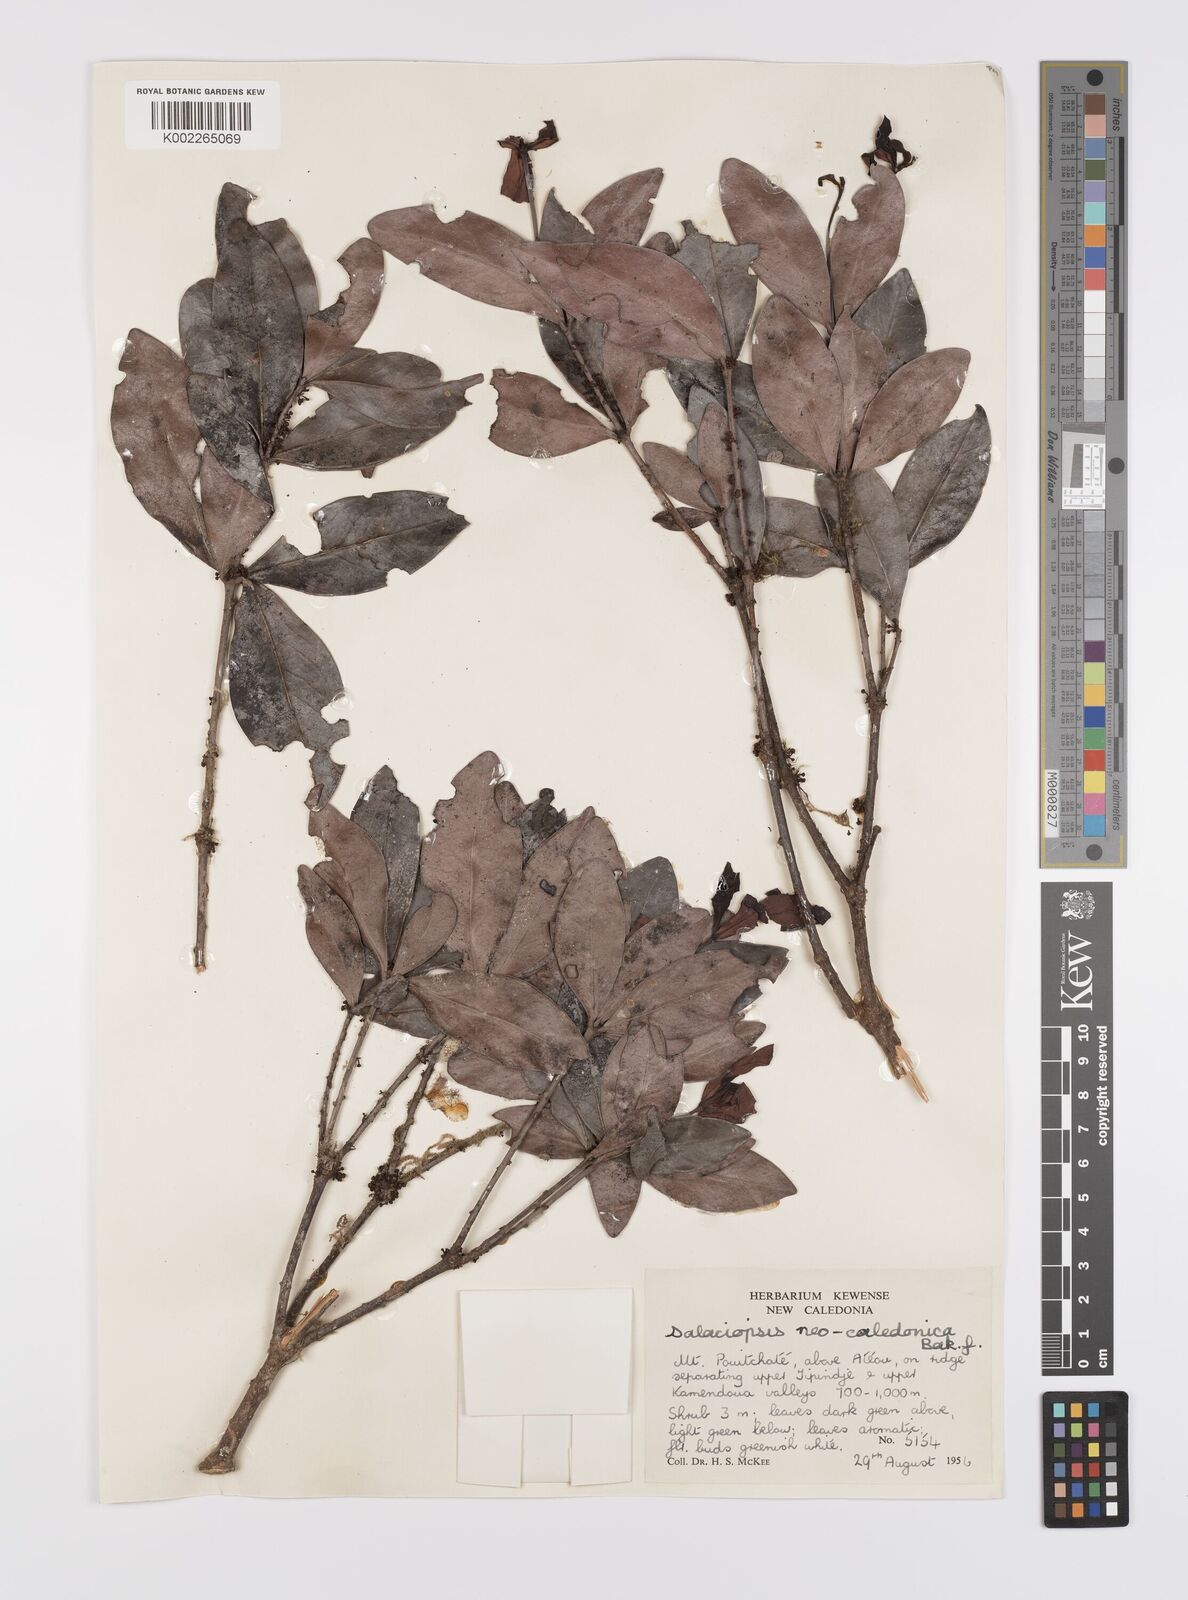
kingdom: Plantae
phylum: Tracheophyta
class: Magnoliopsida
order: Celastrales
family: Celastraceae
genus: Salaciopsis
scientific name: Salaciopsis neocaledonica
